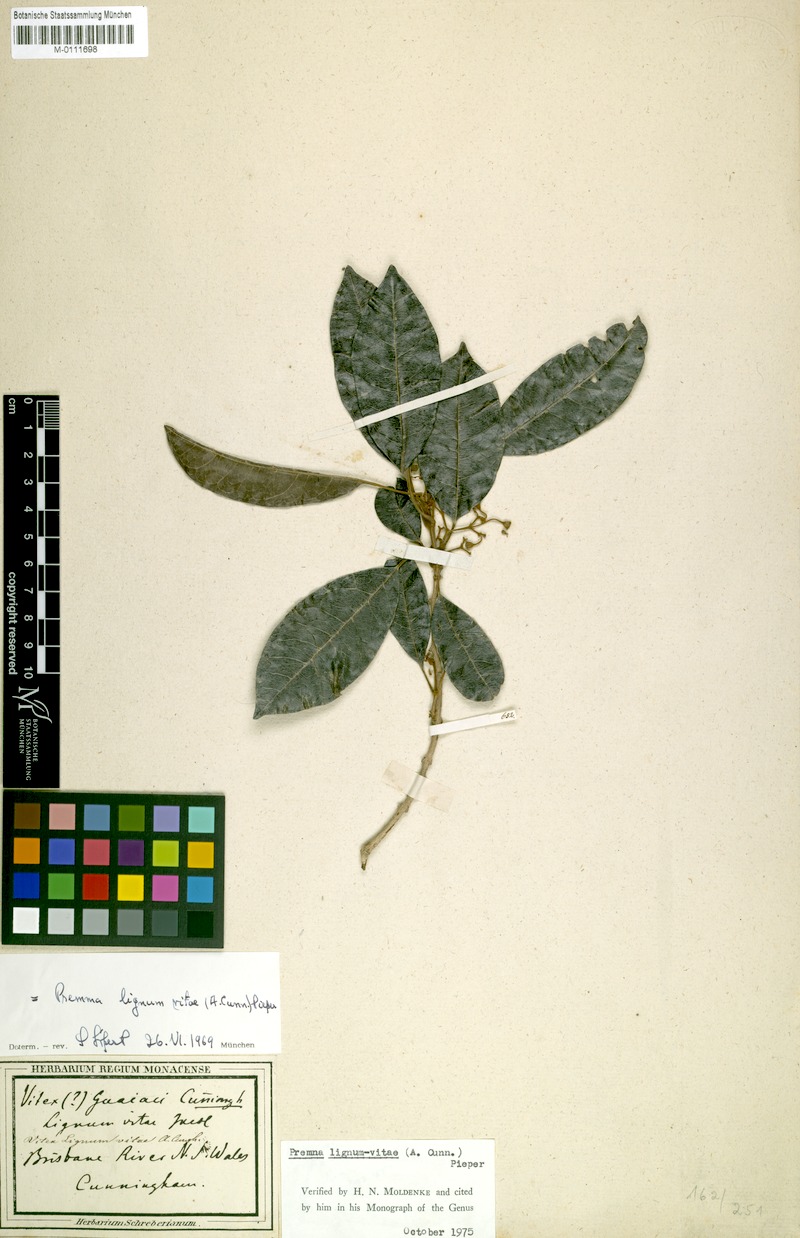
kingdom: Plantae
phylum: Tracheophyta
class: Magnoliopsida
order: Lamiales
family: Lamiaceae
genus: Vitex
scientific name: Vitex lignum-vitae
